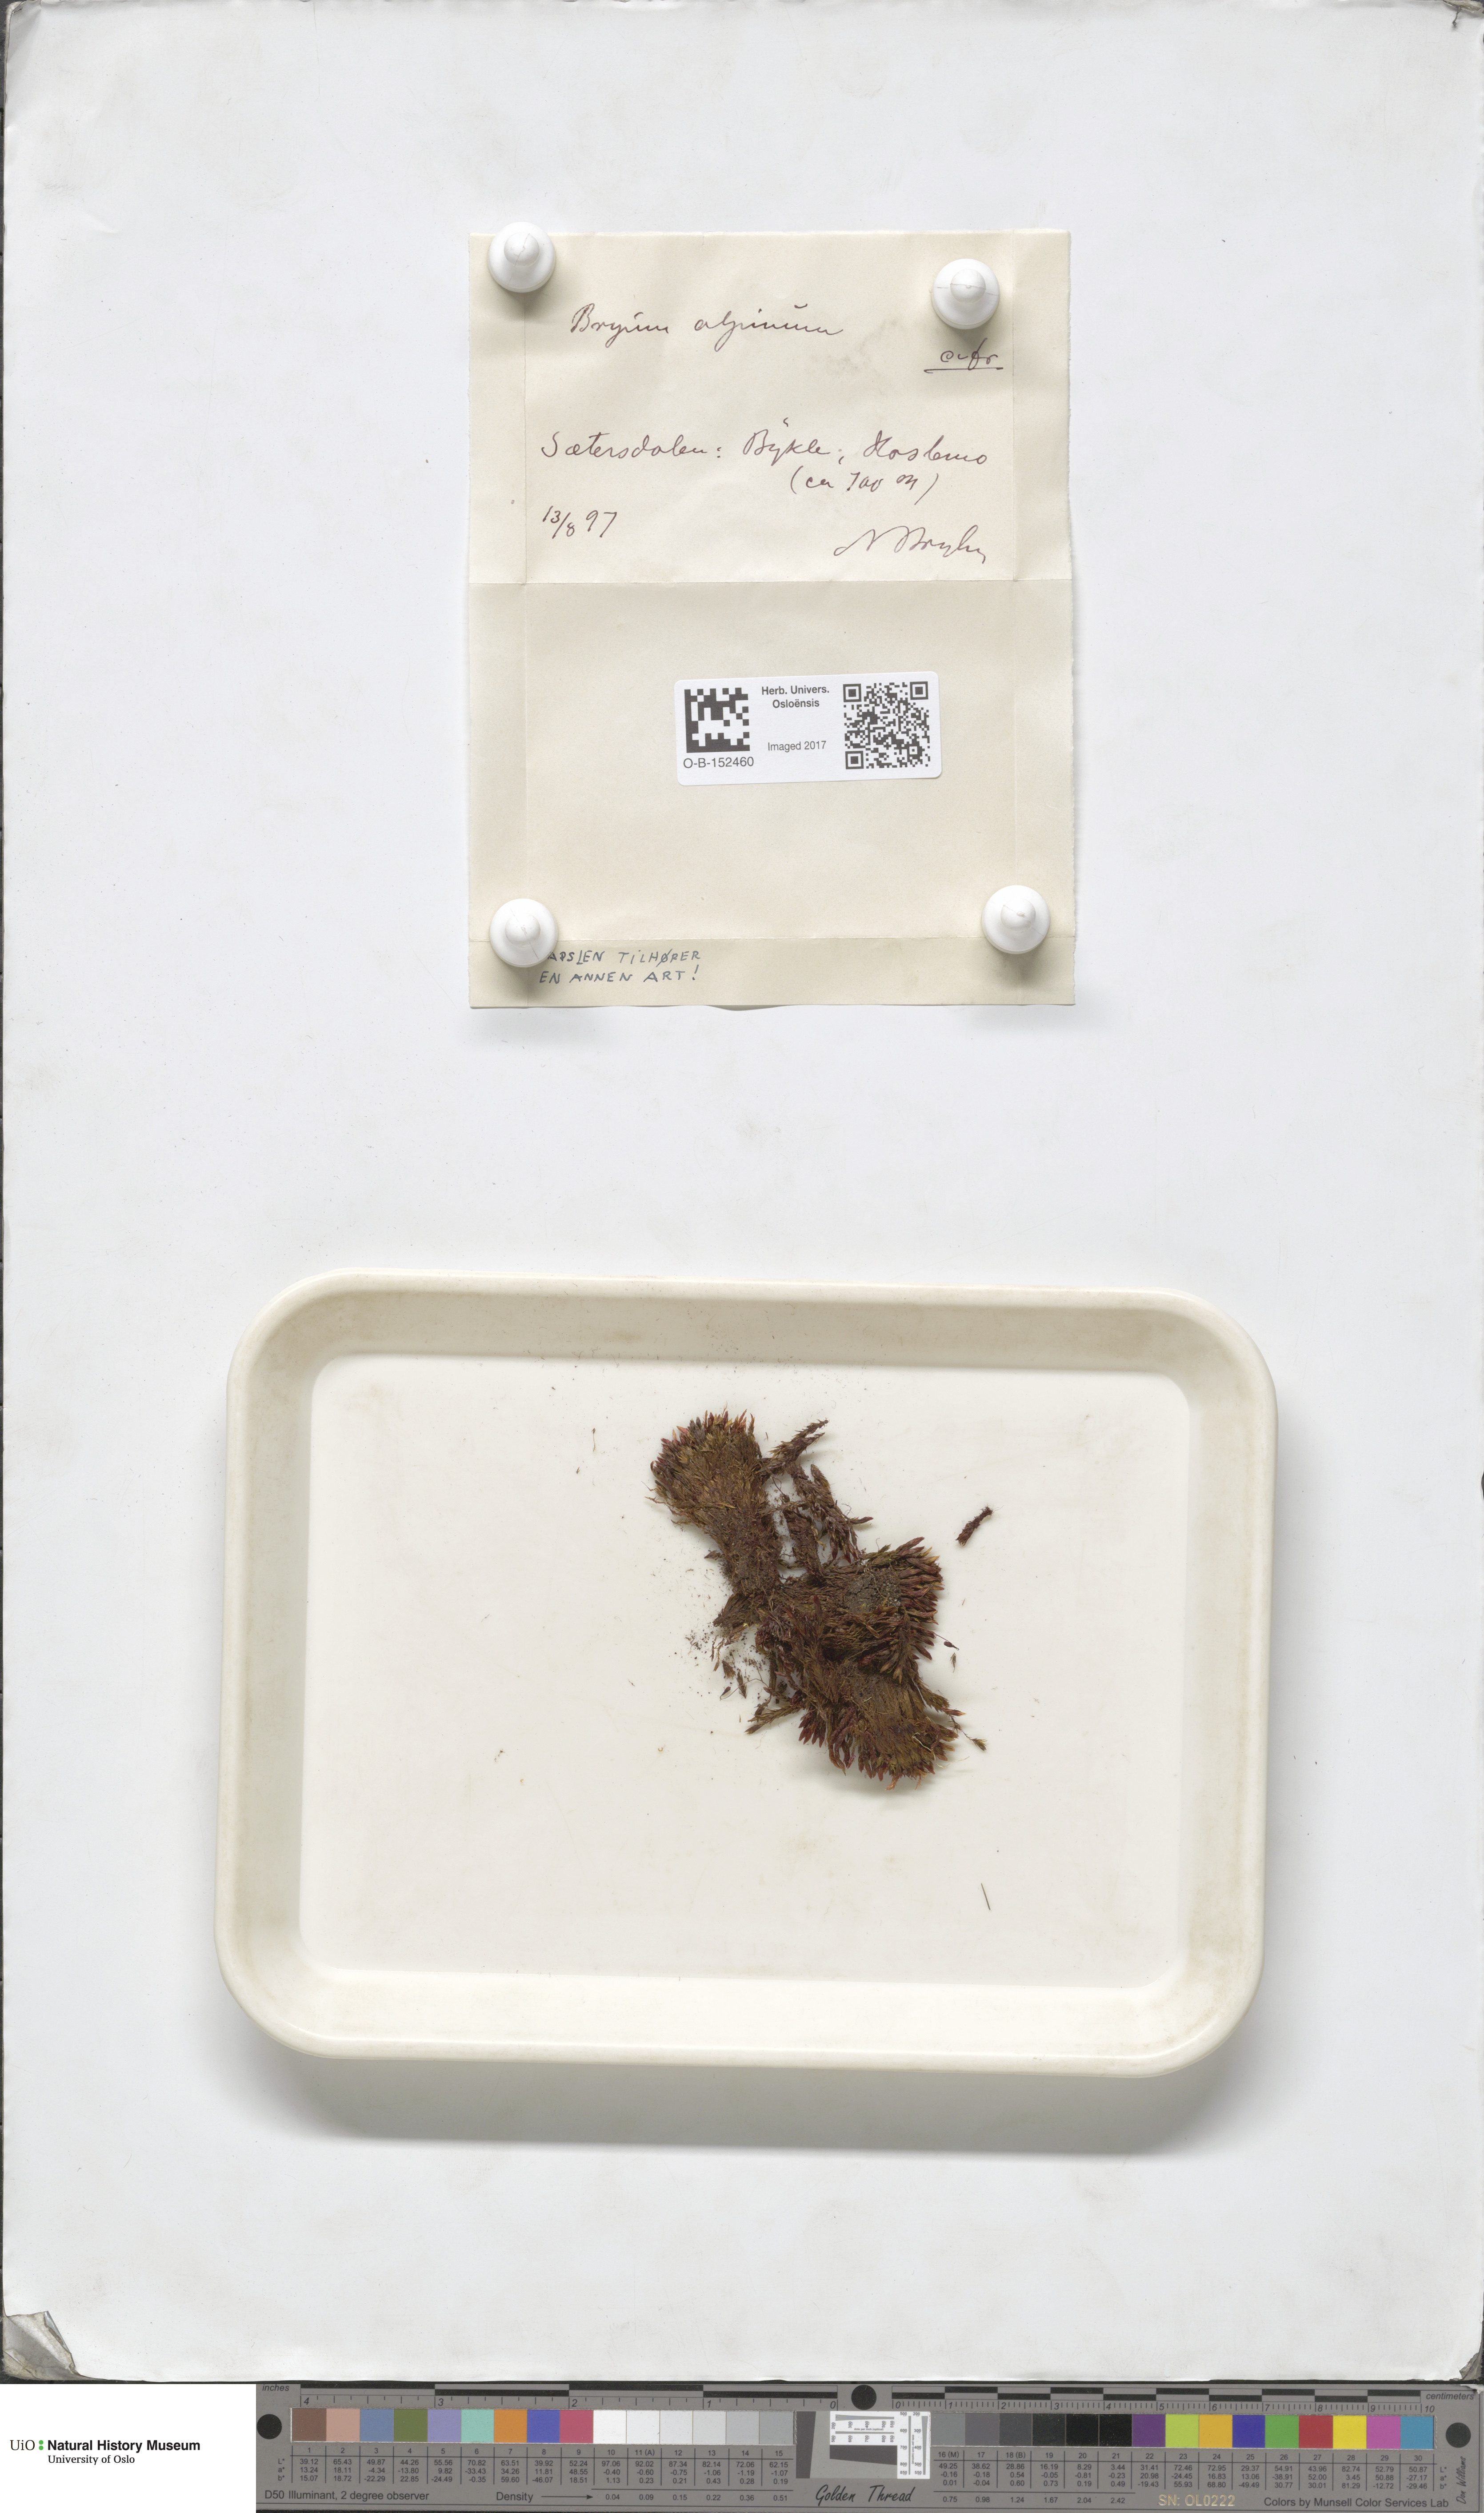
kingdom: Plantae
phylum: Bryophyta
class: Bryopsida
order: Bryales
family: Bryaceae
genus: Imbribryum
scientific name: Imbribryum alpinum
